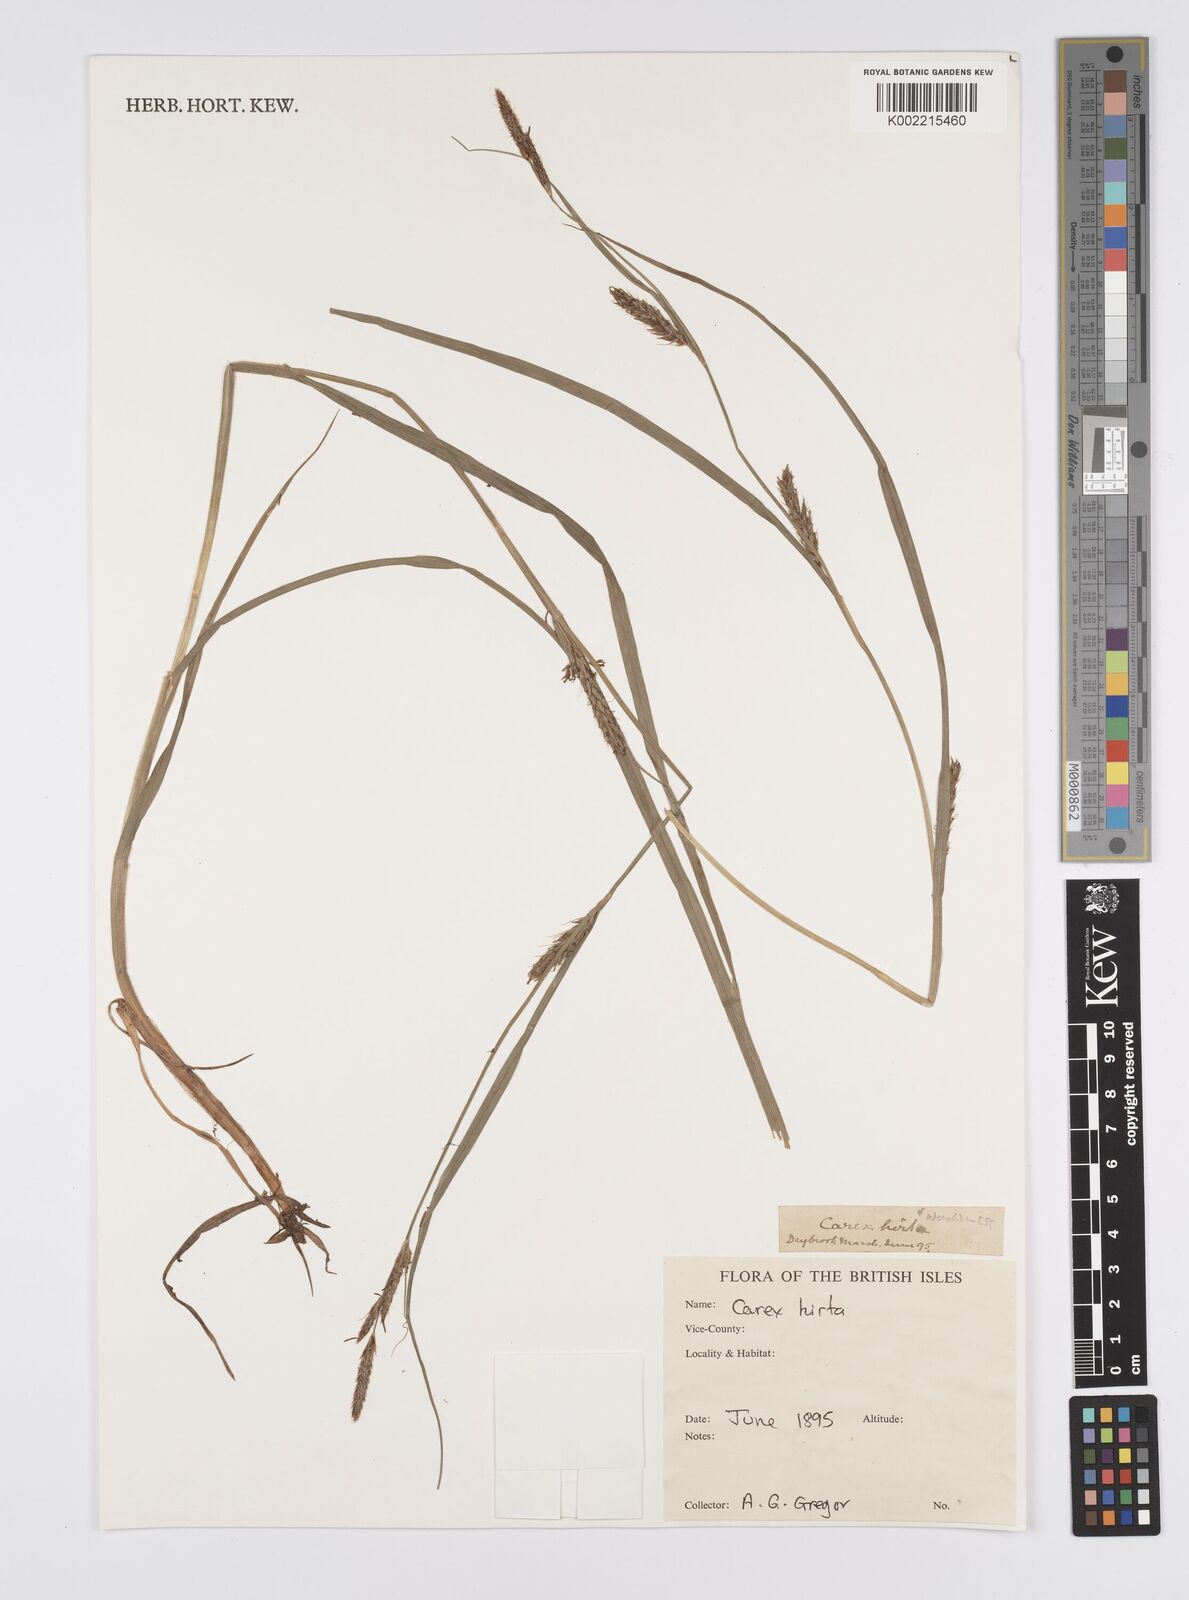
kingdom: Plantae
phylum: Tracheophyta
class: Liliopsida
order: Poales
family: Cyperaceae
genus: Carex
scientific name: Carex hirta
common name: Hairy sedge
